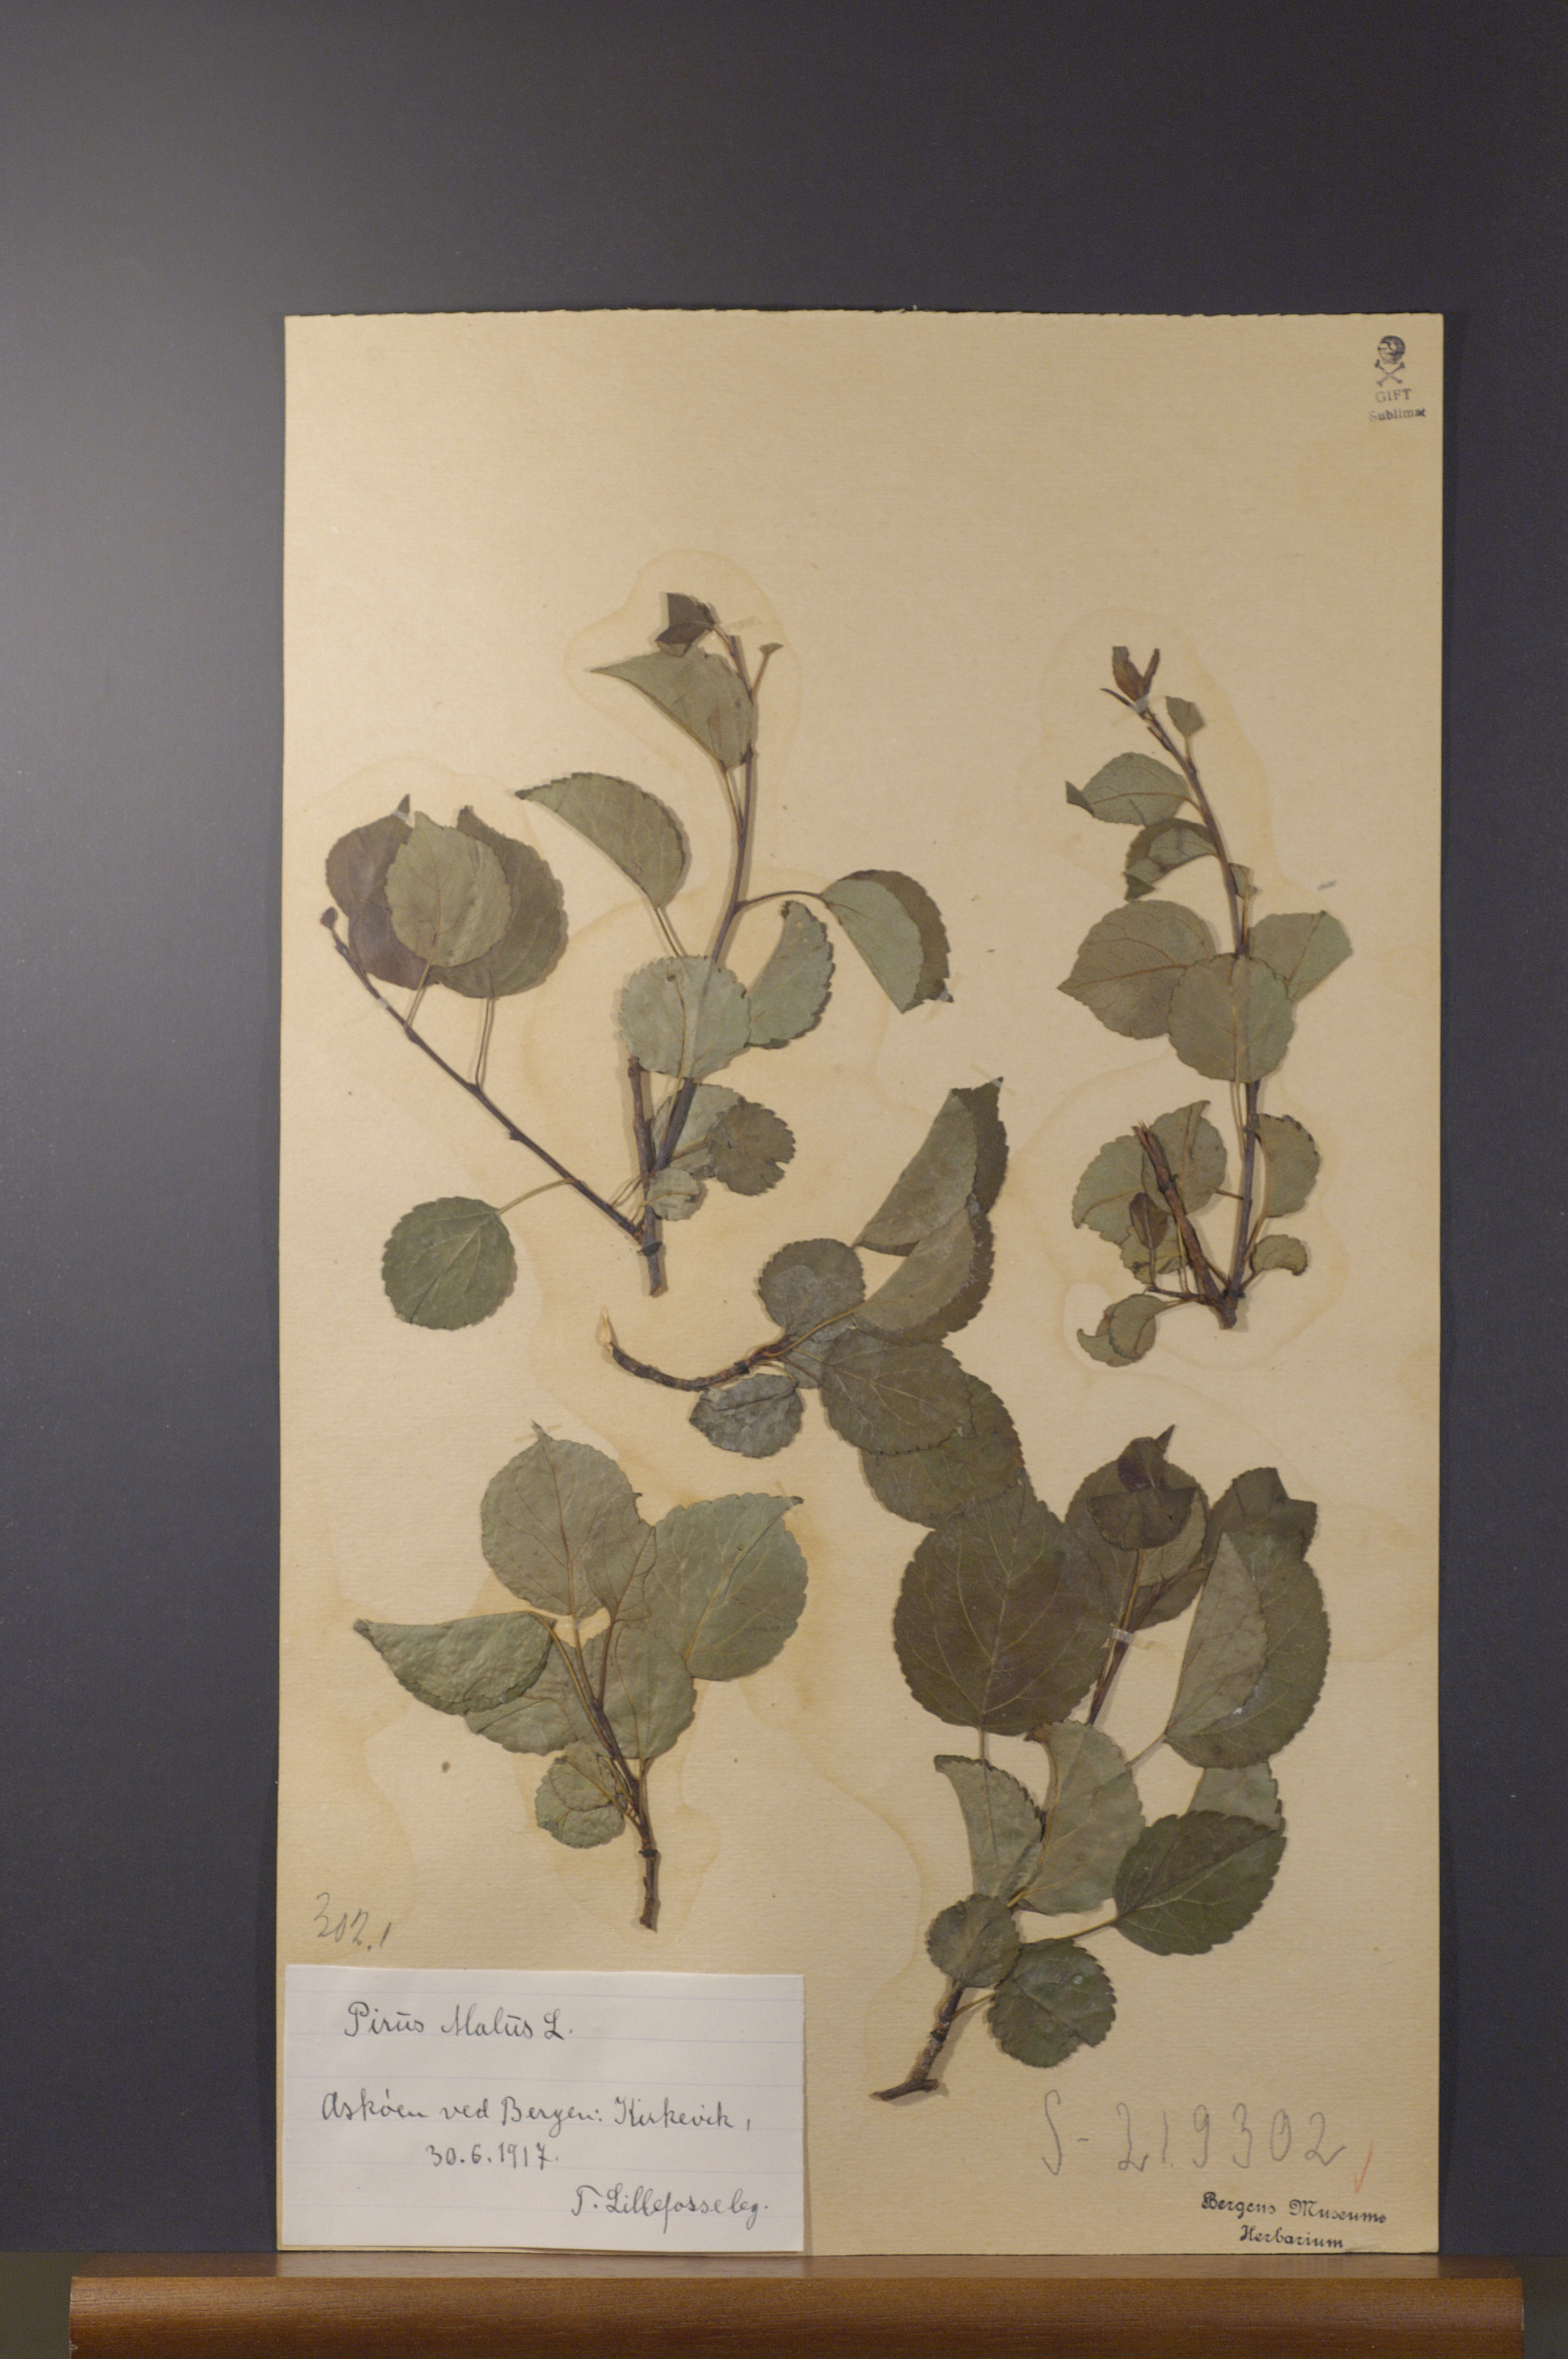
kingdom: Plantae
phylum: Tracheophyta
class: Magnoliopsida
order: Rosales
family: Rosaceae
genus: Malus
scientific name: Malus domestica
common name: Apple
